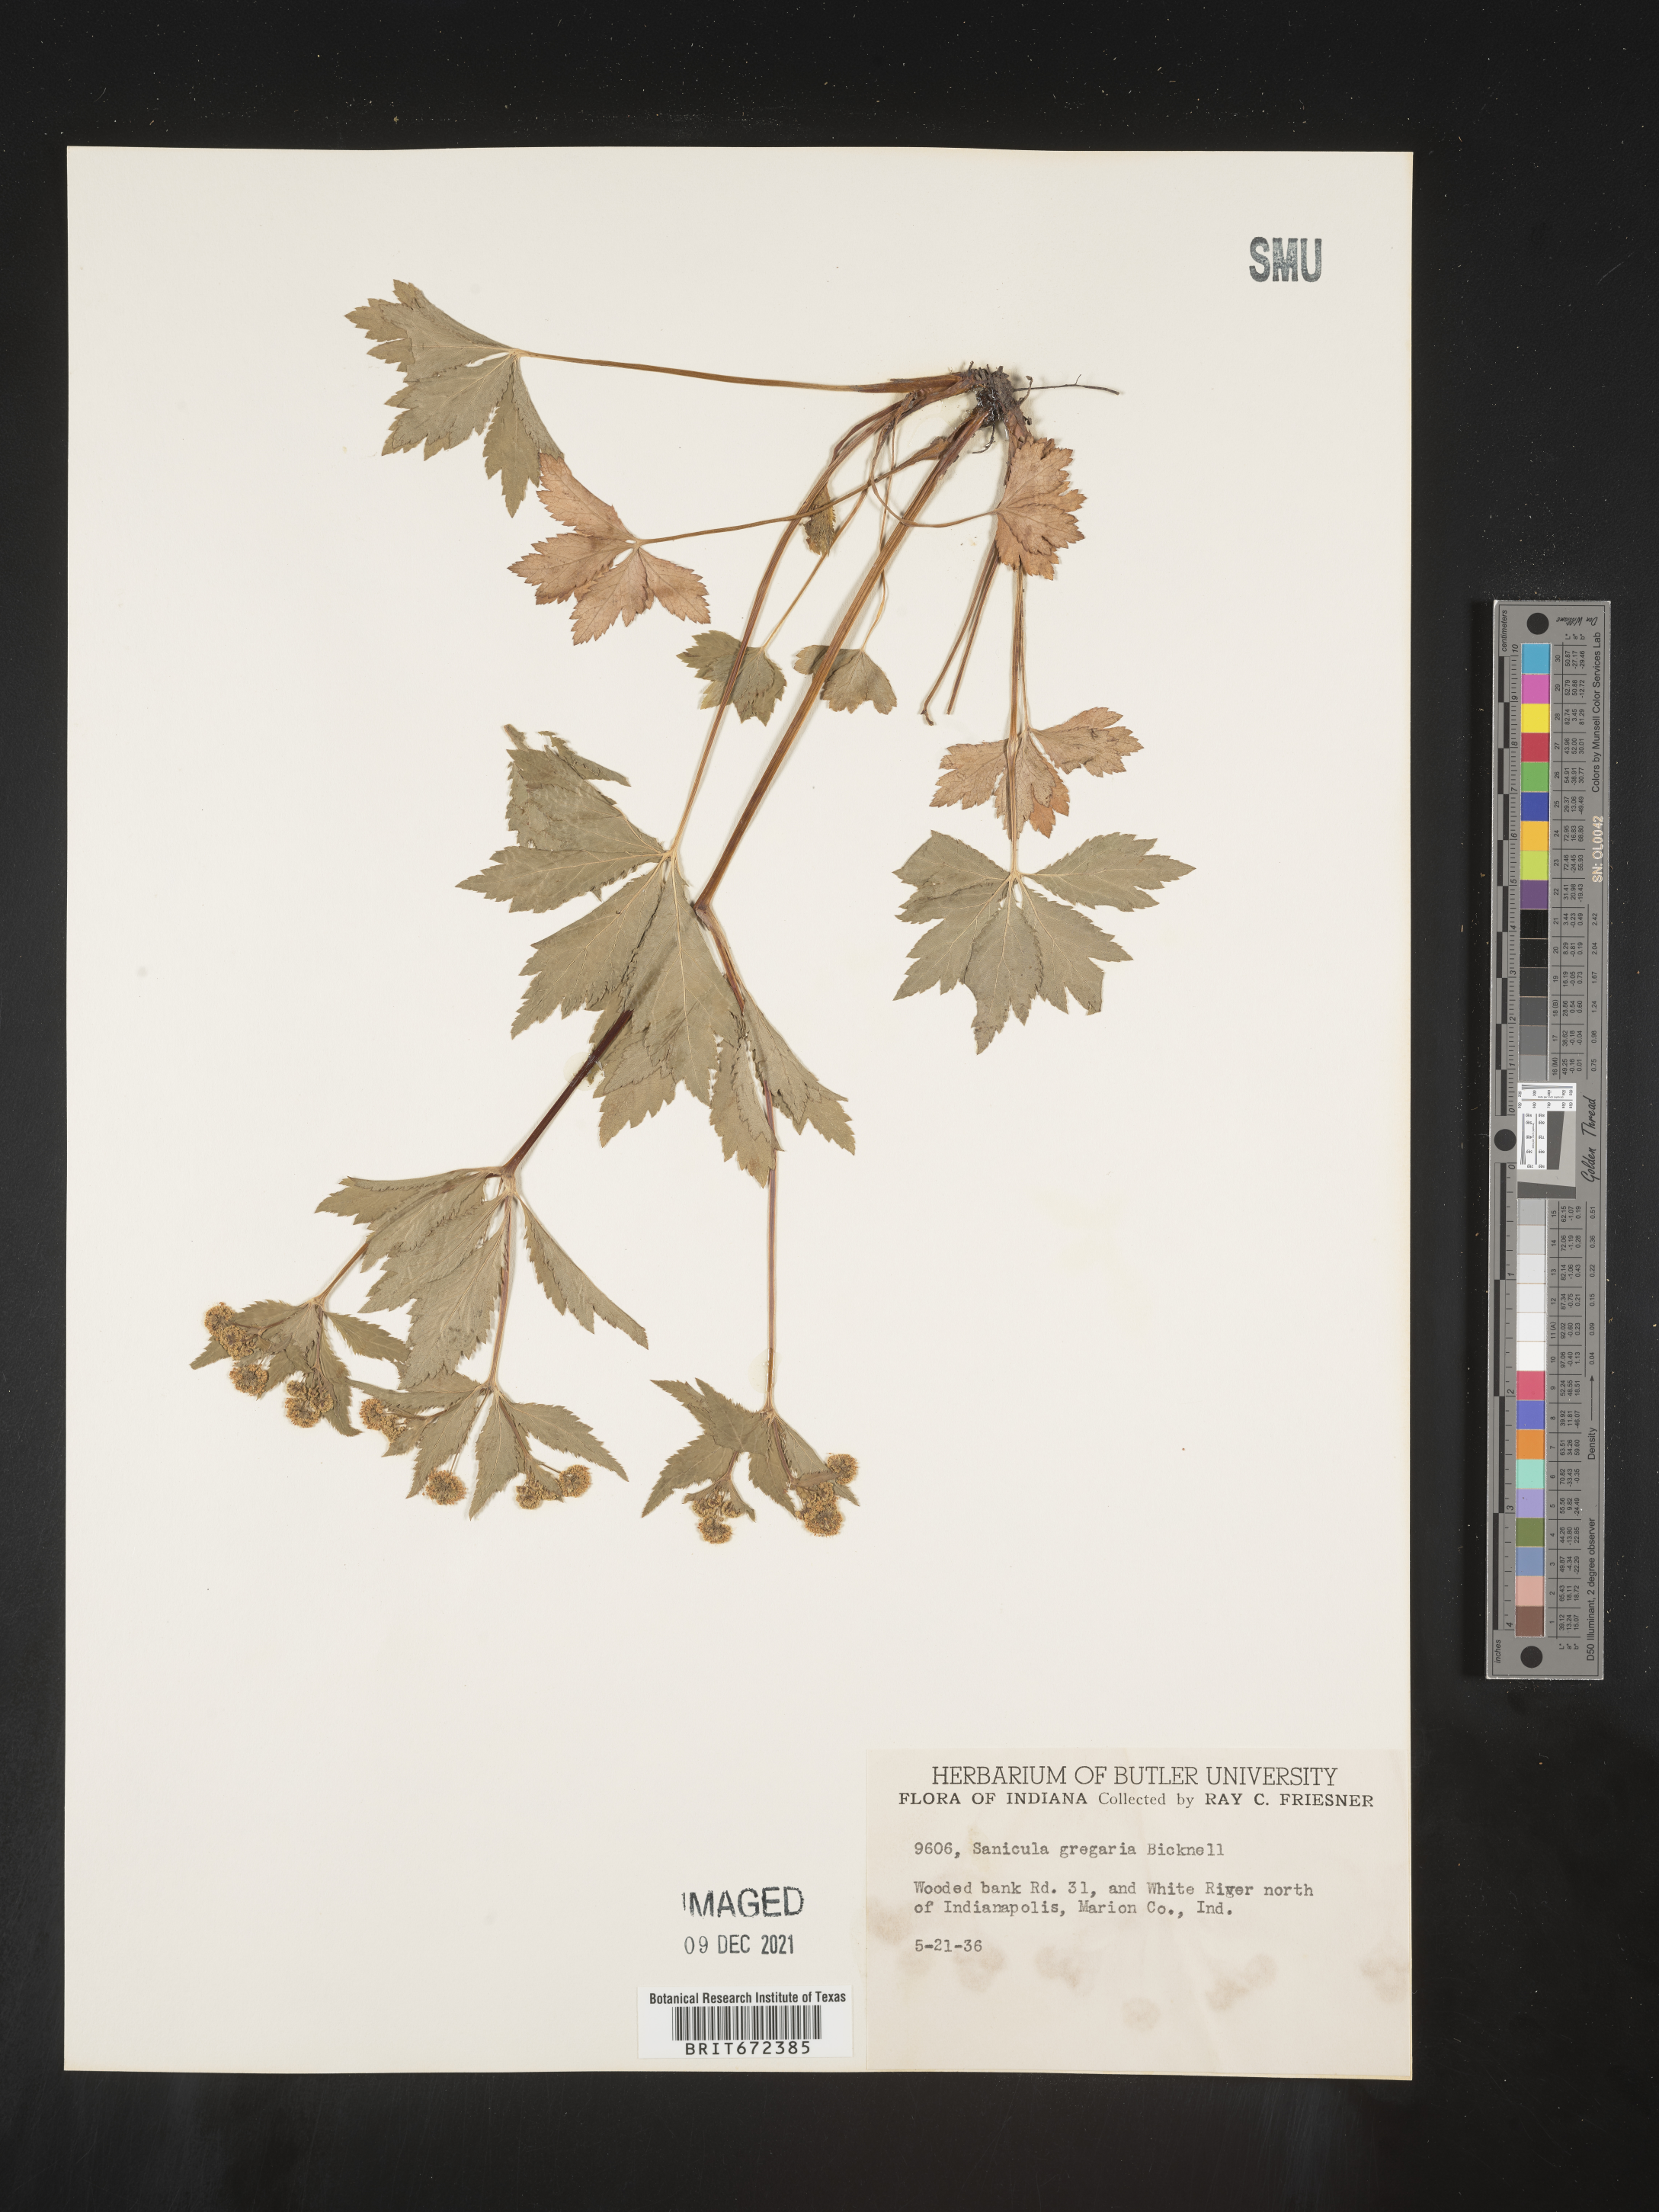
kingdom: Plantae
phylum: Tracheophyta
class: Magnoliopsida
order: Apiales
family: Apiaceae
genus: Sanicula
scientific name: Sanicula odorata
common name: Cluster sanicle
